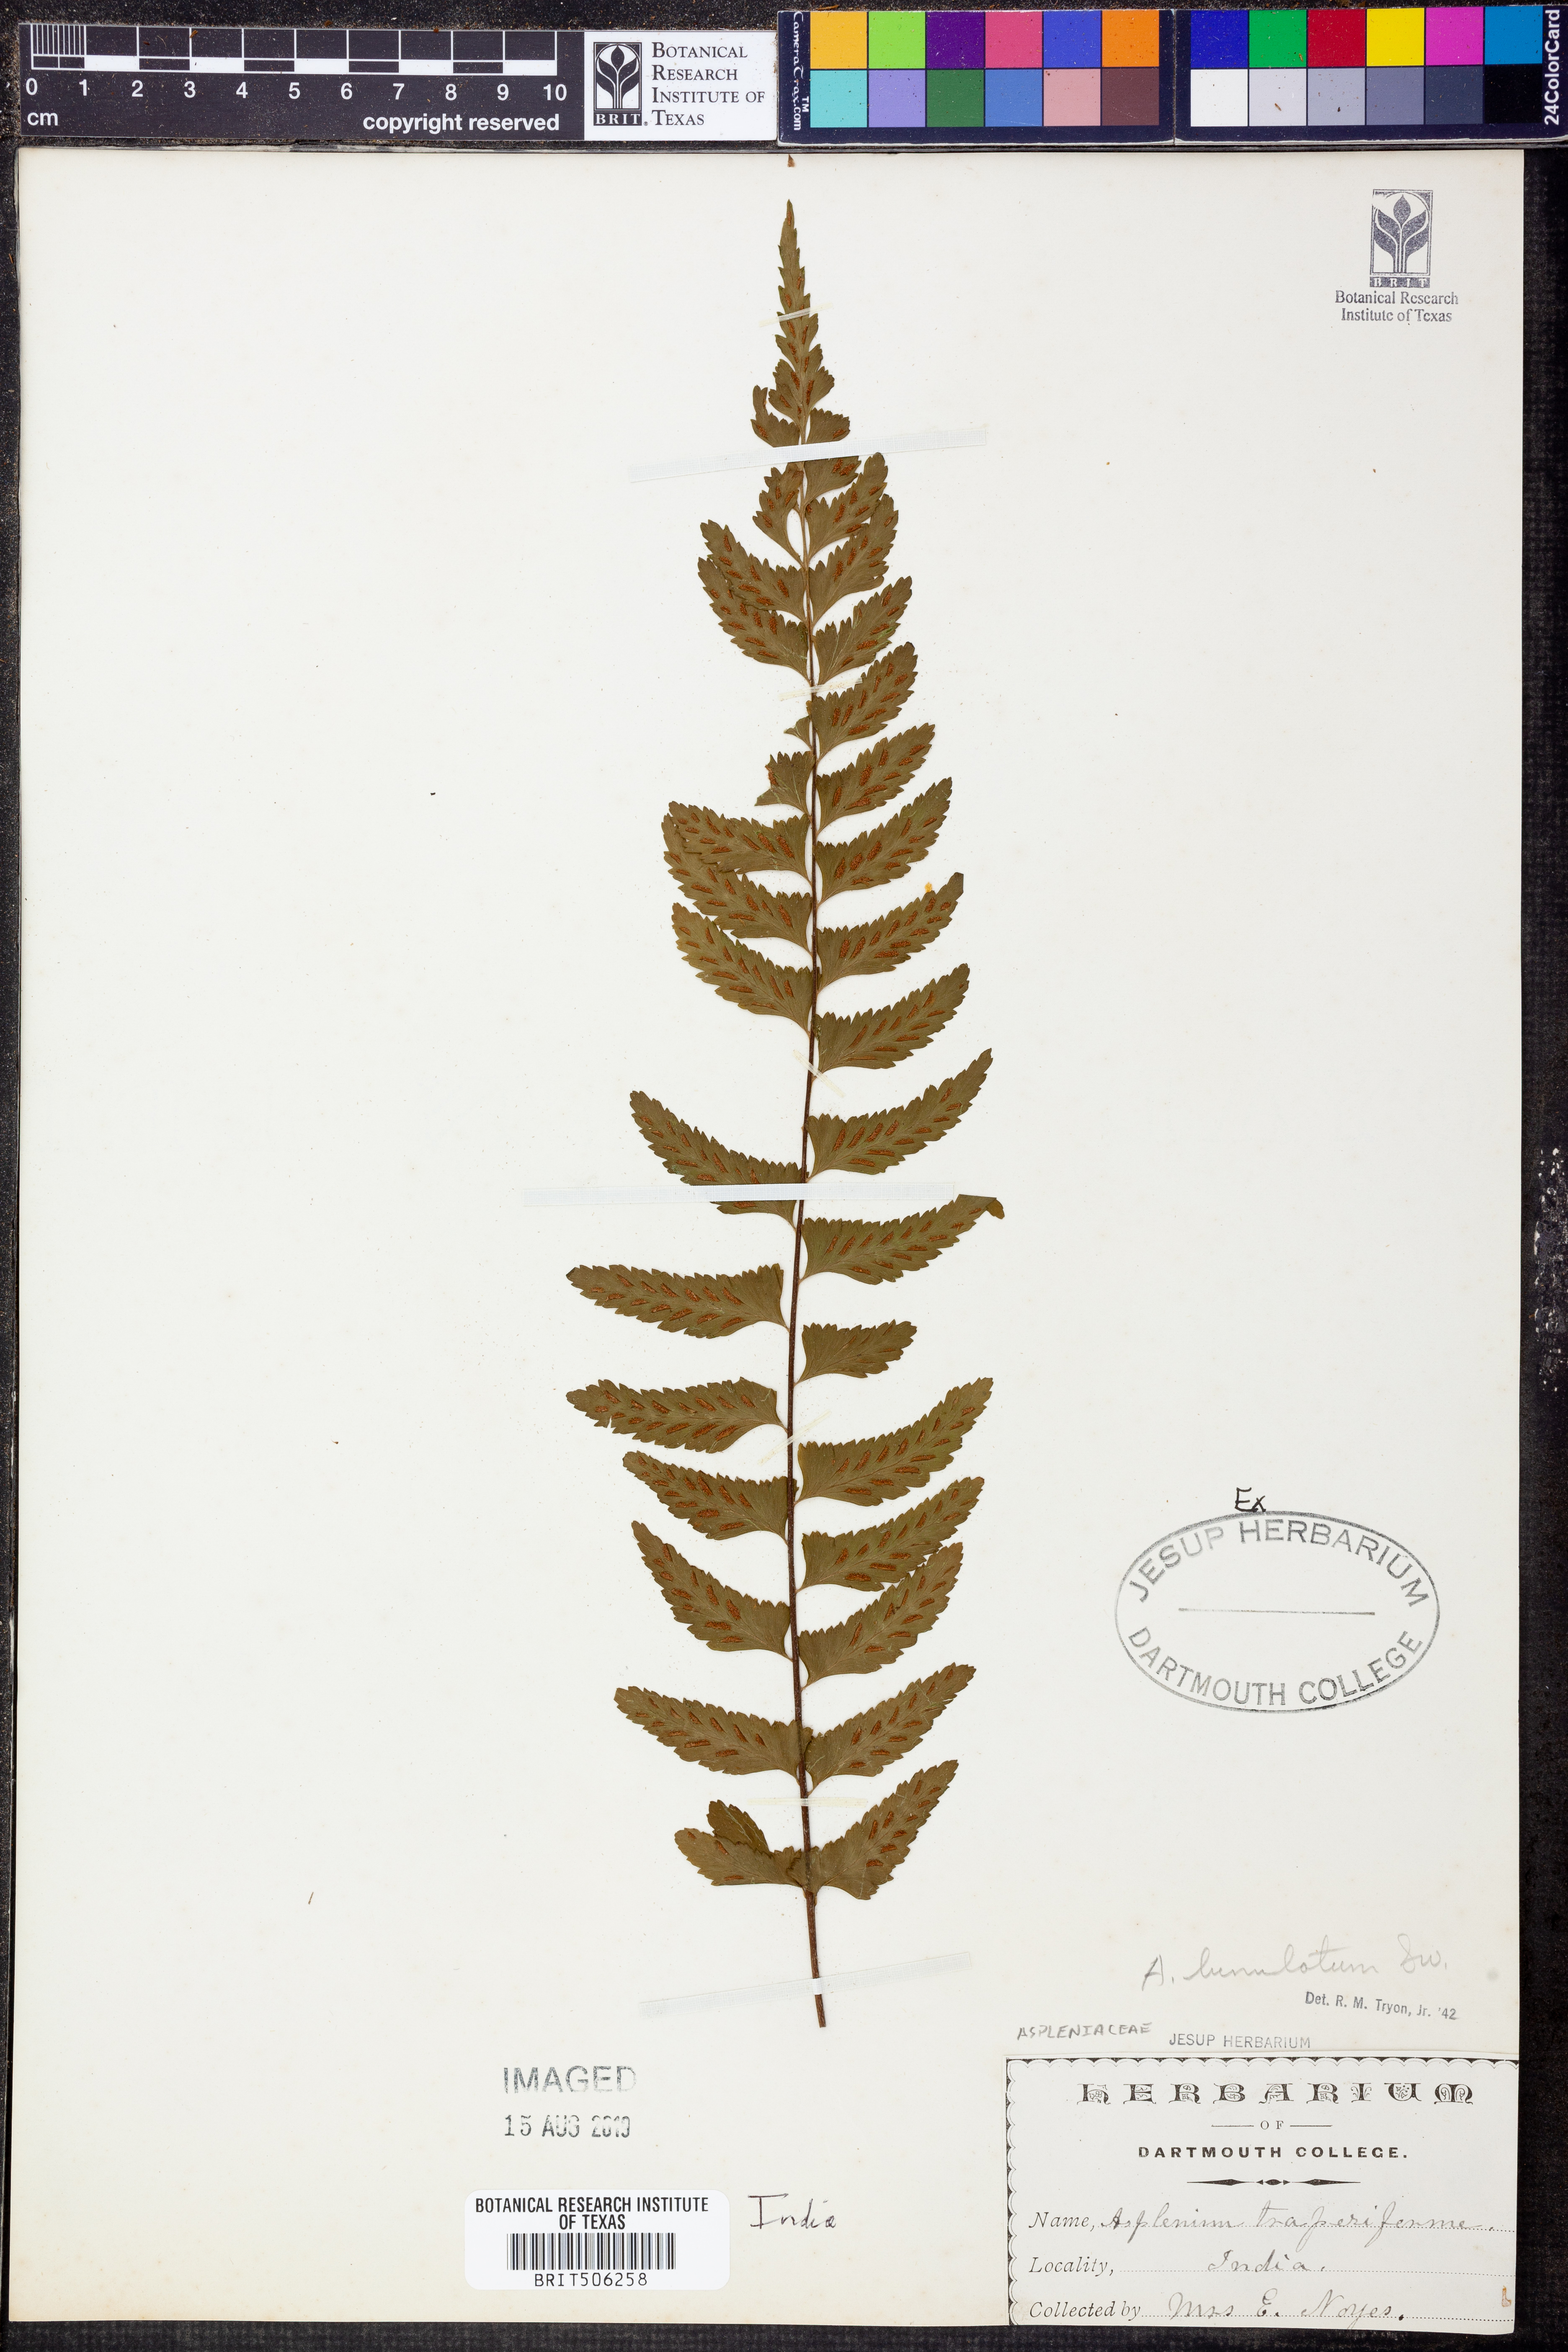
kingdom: Plantae
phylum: Tracheophyta
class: Polypodiopsida
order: Polypodiales
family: Aspleniaceae
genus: Asplenium
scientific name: Asplenium lunulatum
